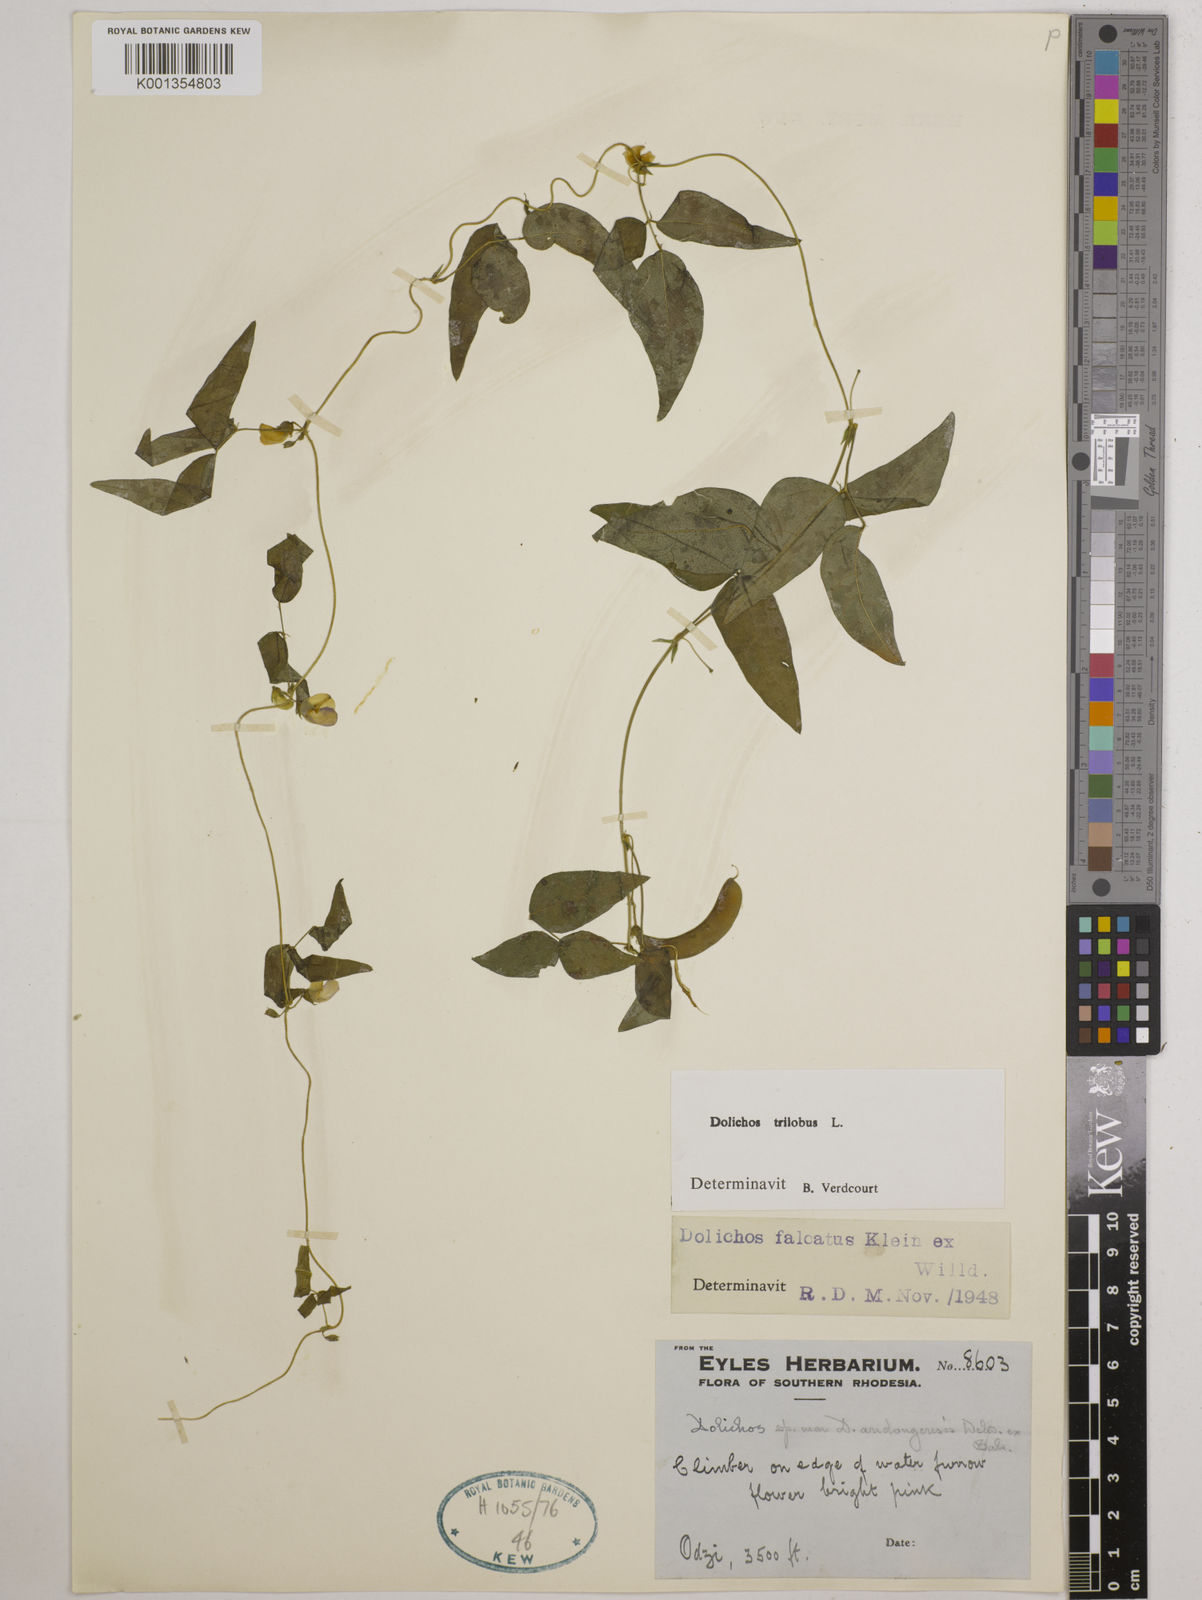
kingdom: Plantae
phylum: Tracheophyta
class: Magnoliopsida
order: Fabales
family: Fabaceae
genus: Dolichos
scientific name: Dolichos
